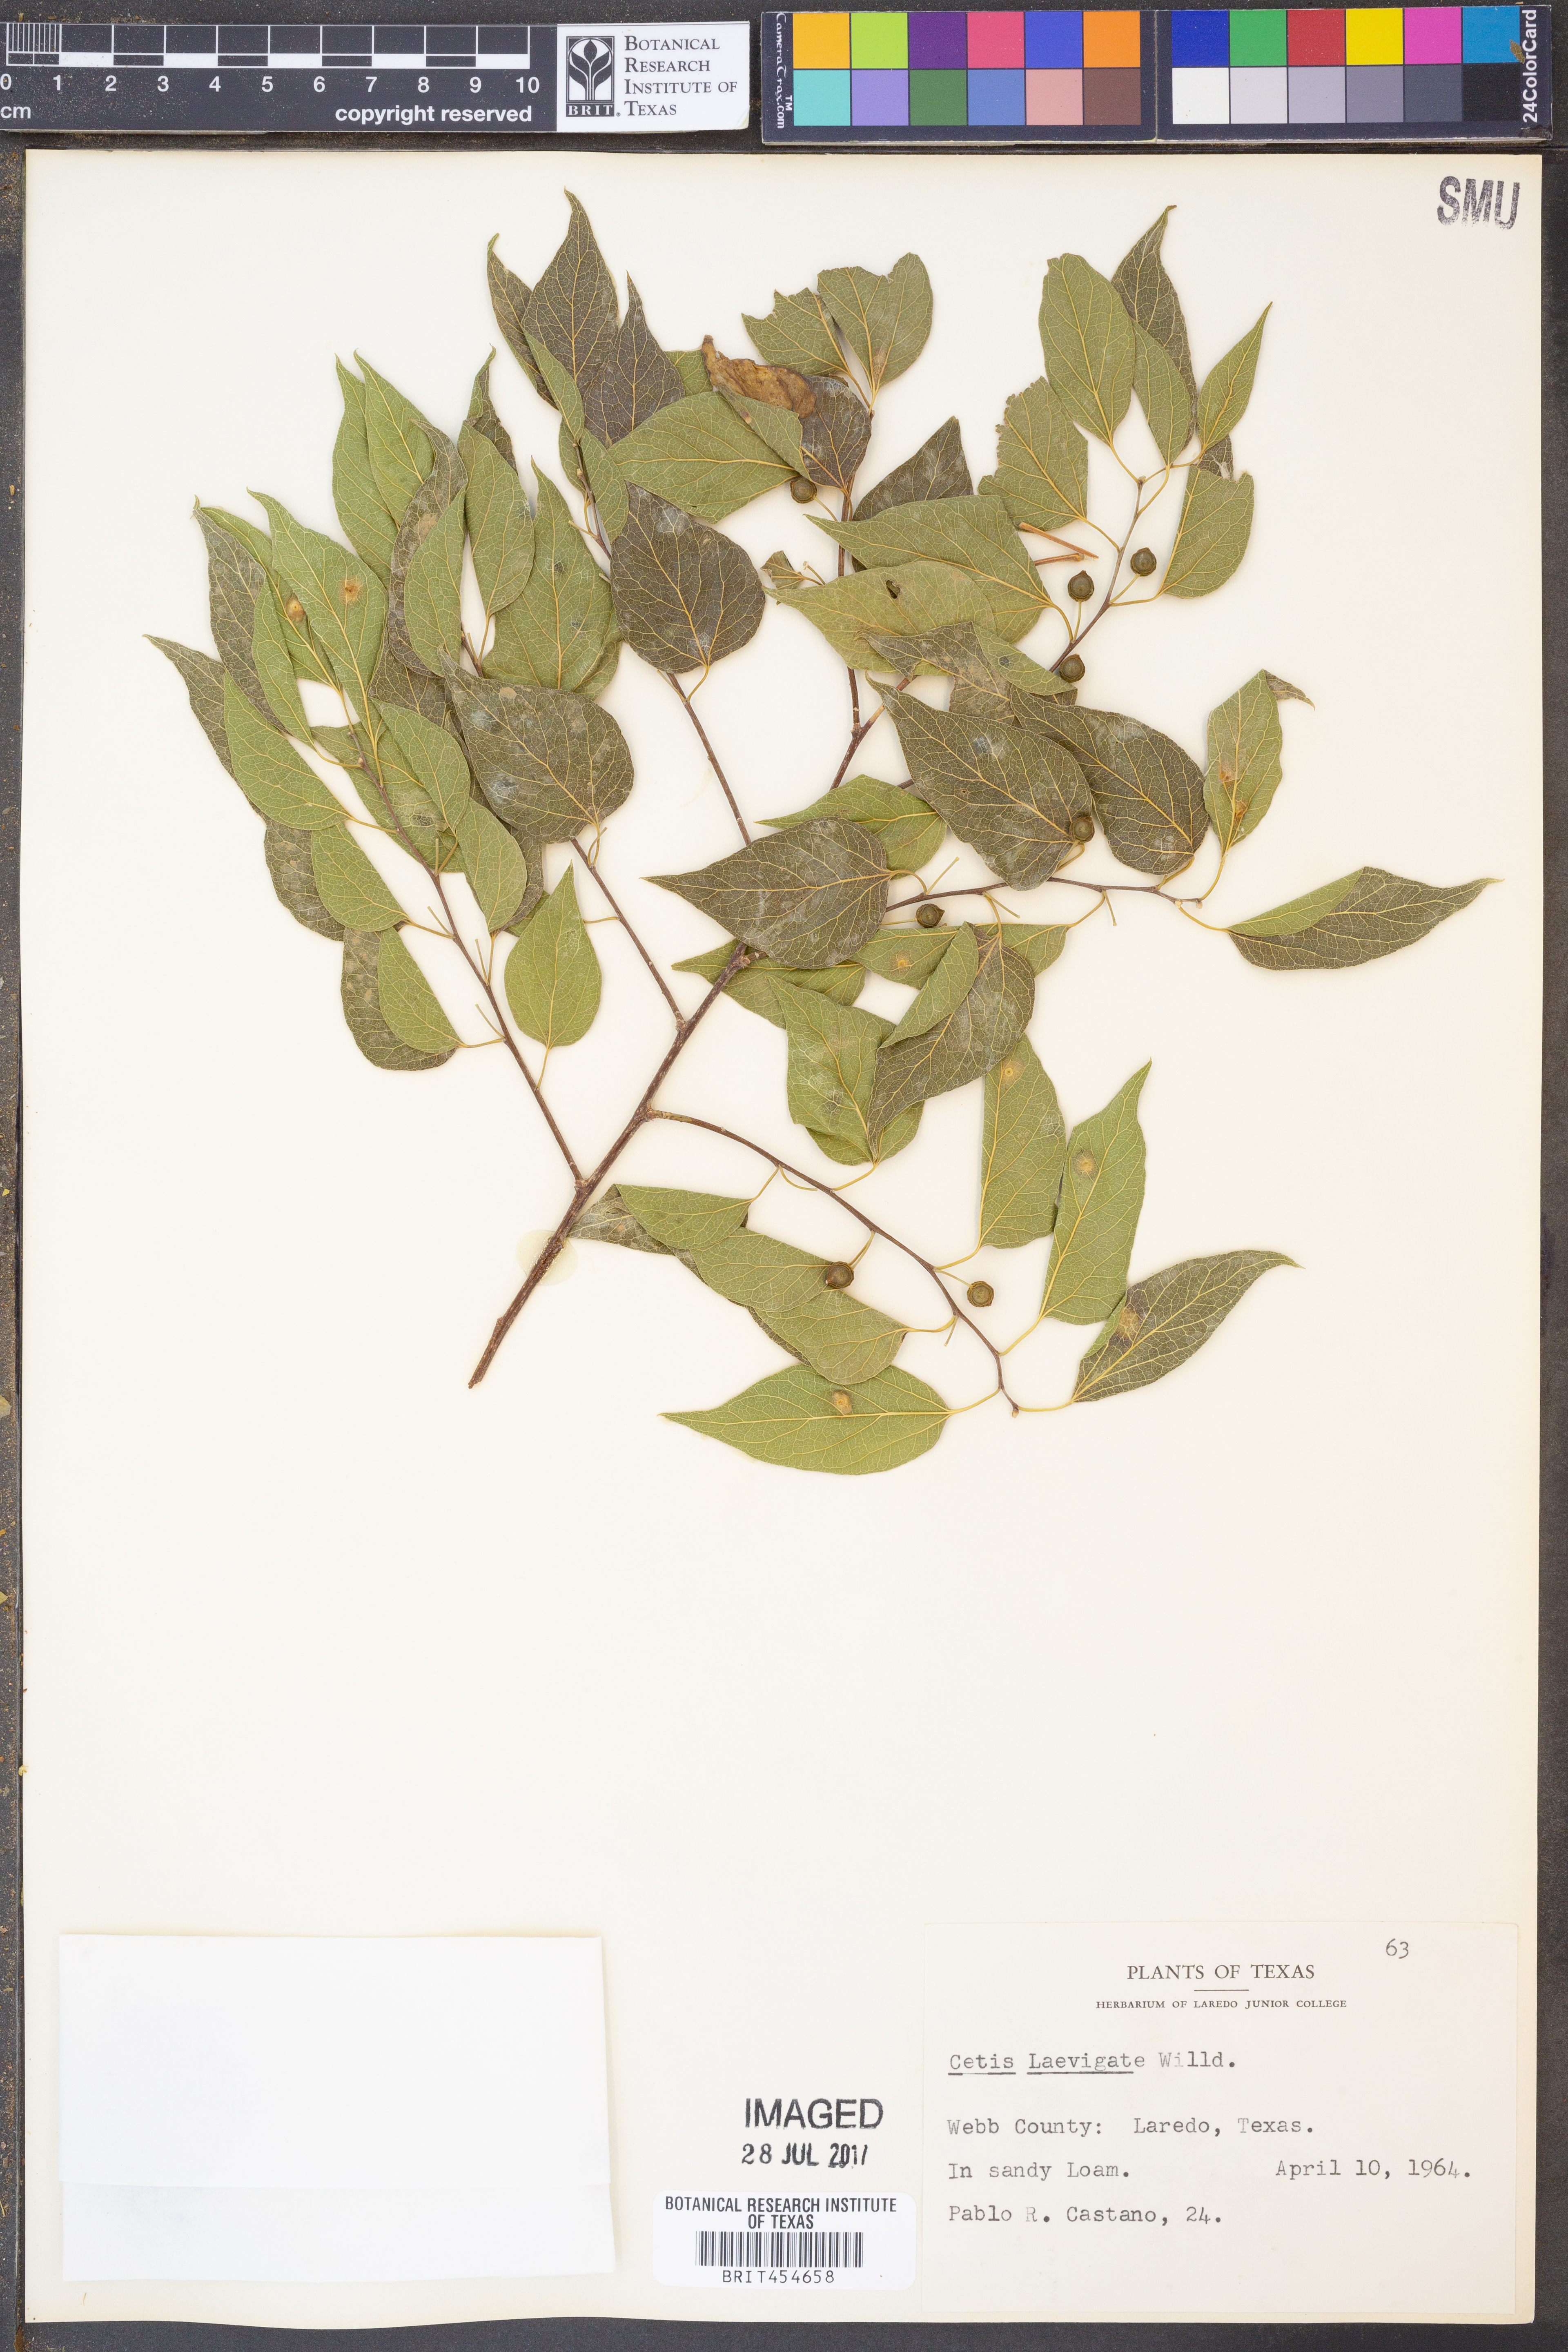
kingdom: Plantae
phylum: Tracheophyta
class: Magnoliopsida
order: Rosales
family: Cannabaceae
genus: Celtis
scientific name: Celtis laevigata
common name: Sugarberry
